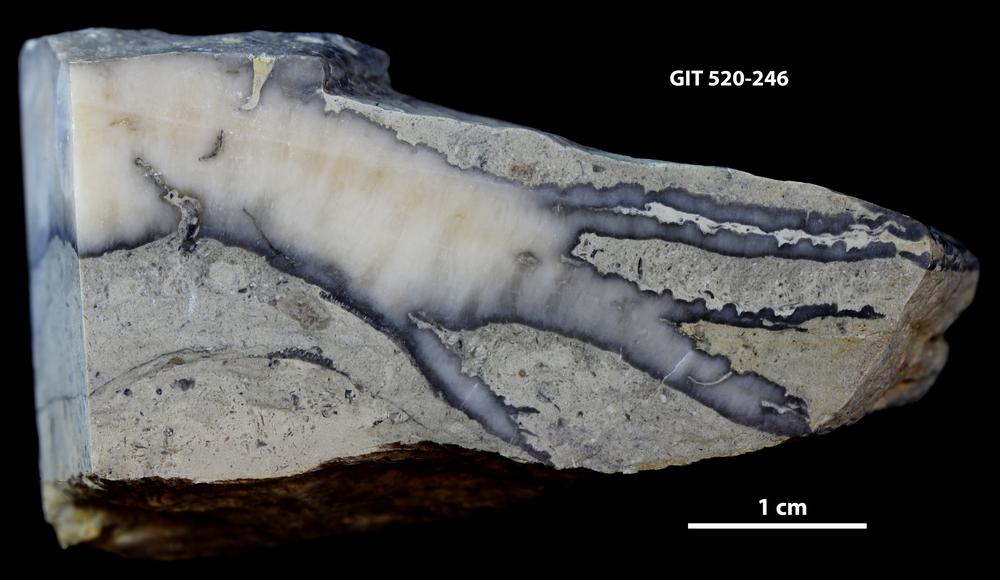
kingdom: Animalia
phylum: Cnidaria
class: Anthozoa
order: Heliolitina
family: Coccoserididae
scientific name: Coccoserididae
